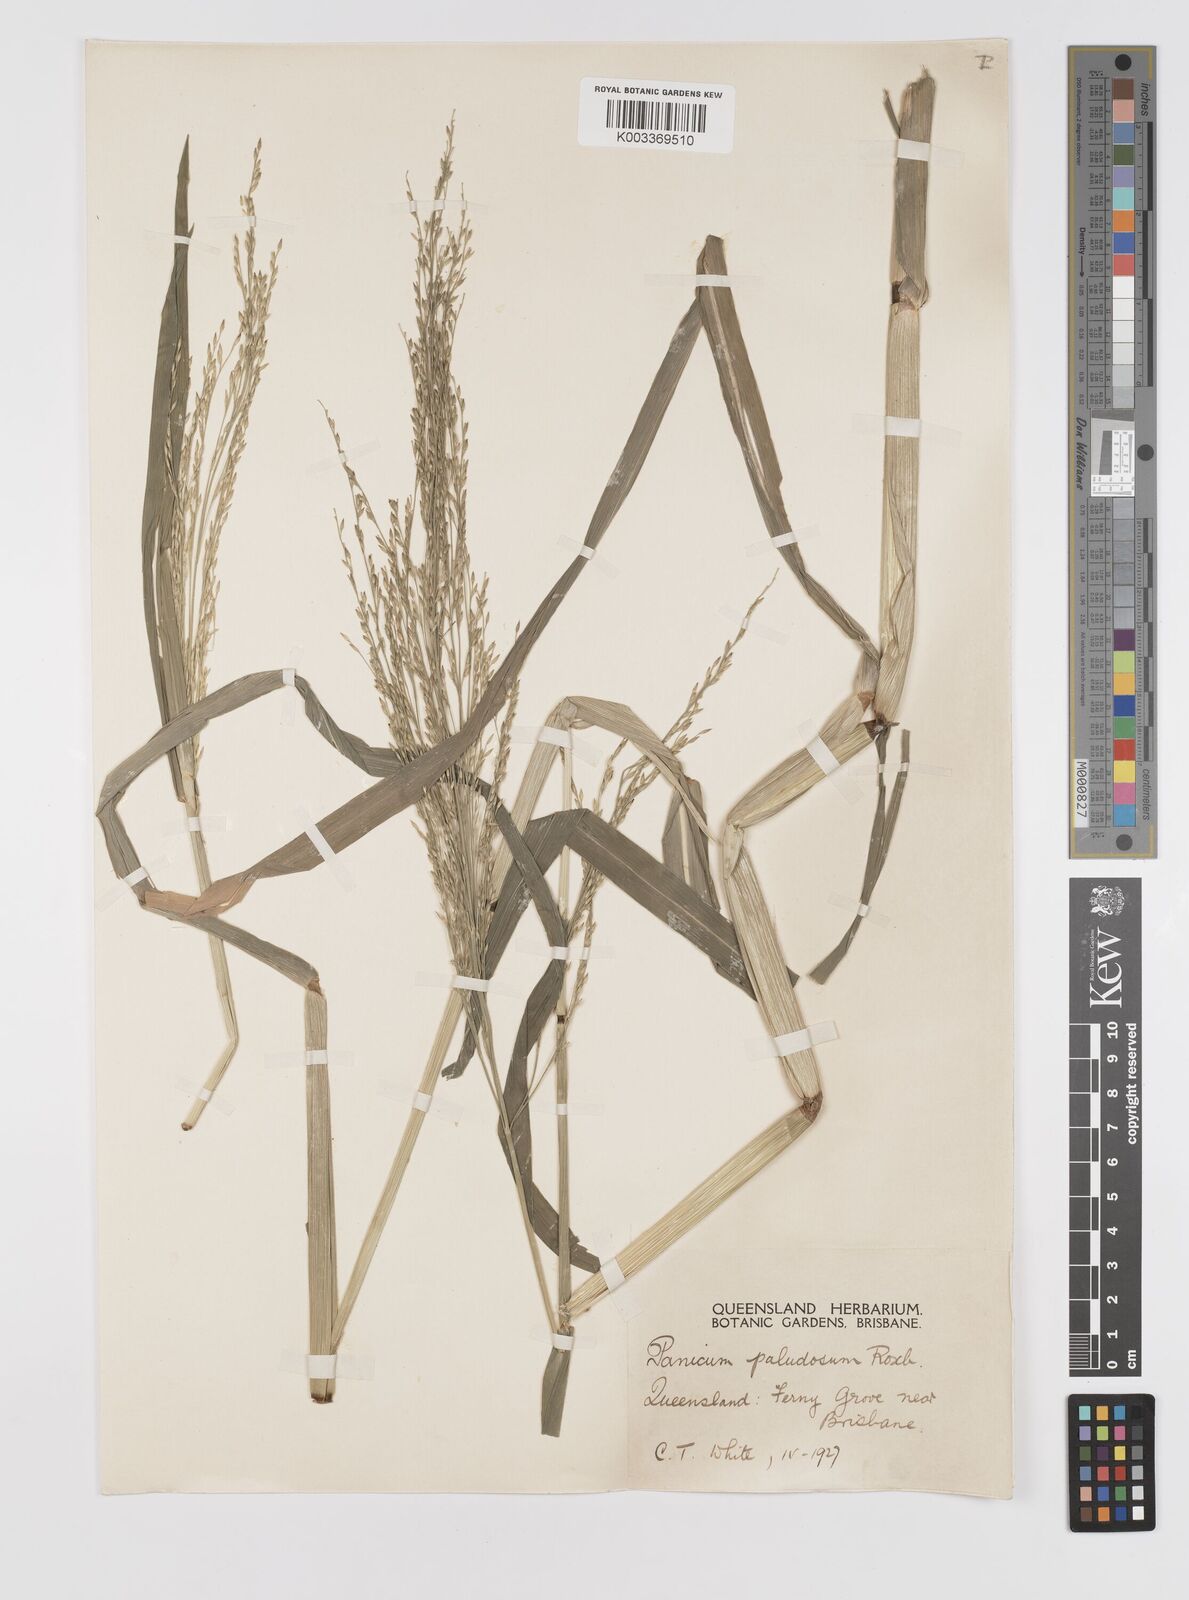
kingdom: Plantae
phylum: Tracheophyta
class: Liliopsida
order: Poales
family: Poaceae
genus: Louisiella
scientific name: Louisiella paludosa
